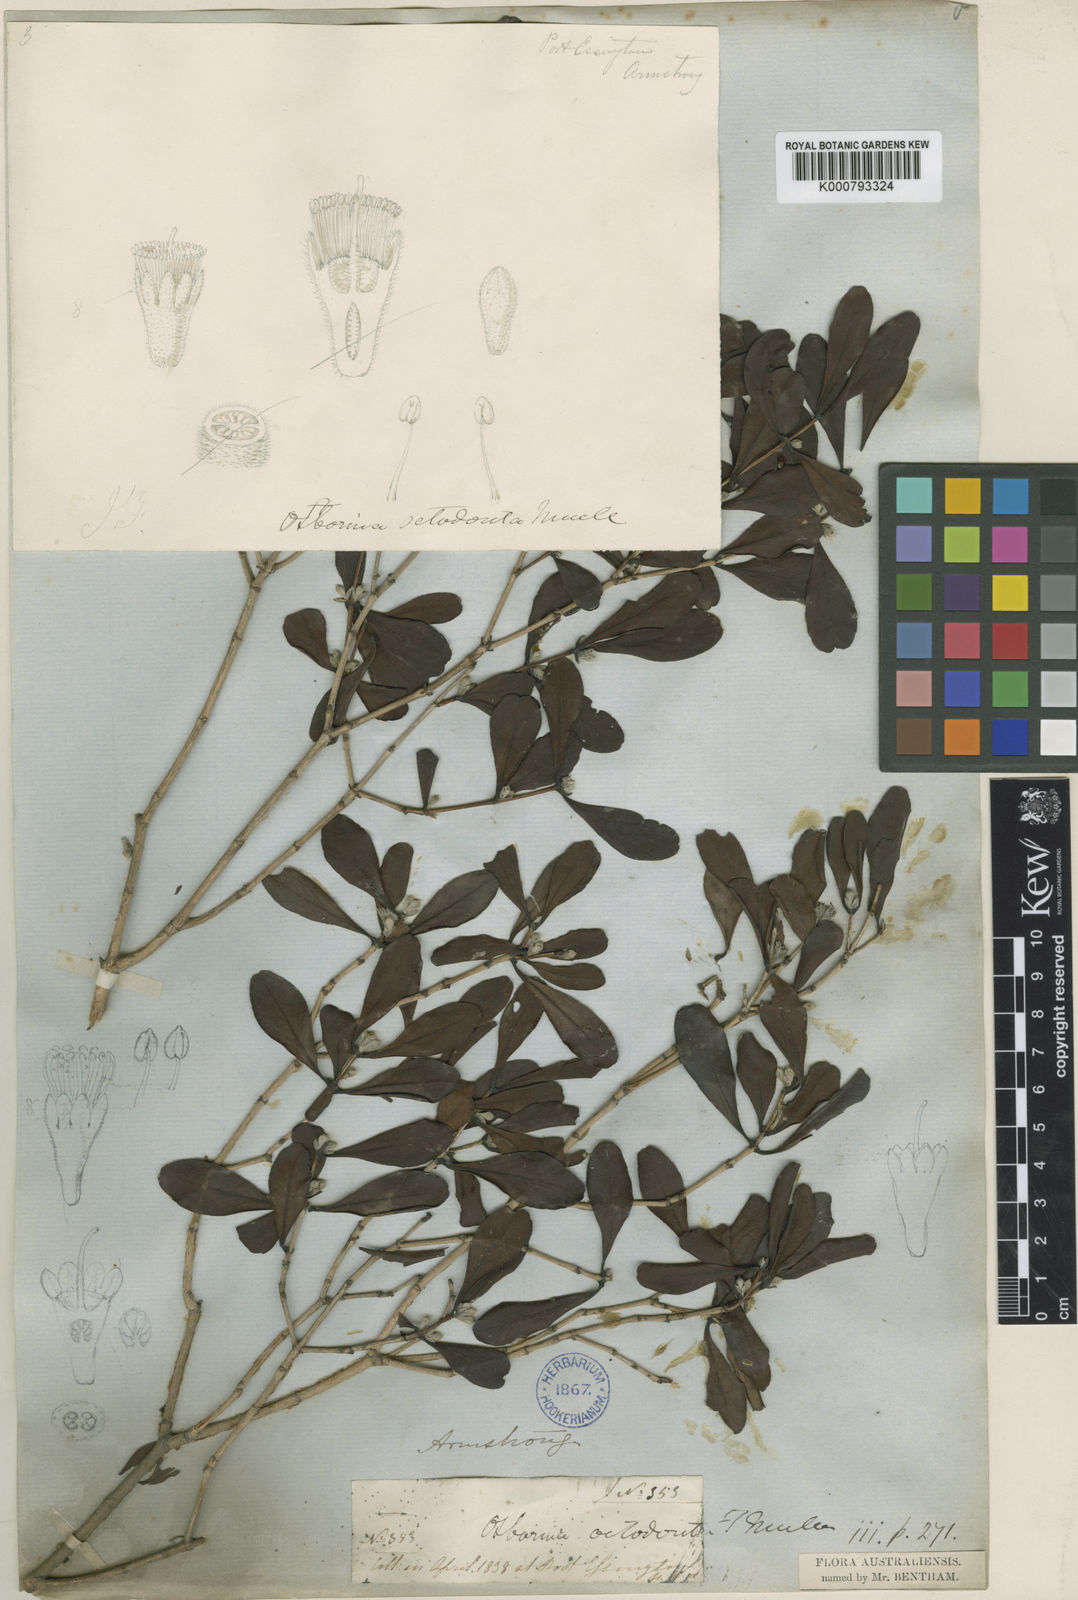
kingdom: Plantae
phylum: Tracheophyta
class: Magnoliopsida
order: Myrtales
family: Myrtaceae
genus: Osbornia
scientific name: Osbornia octodonta
